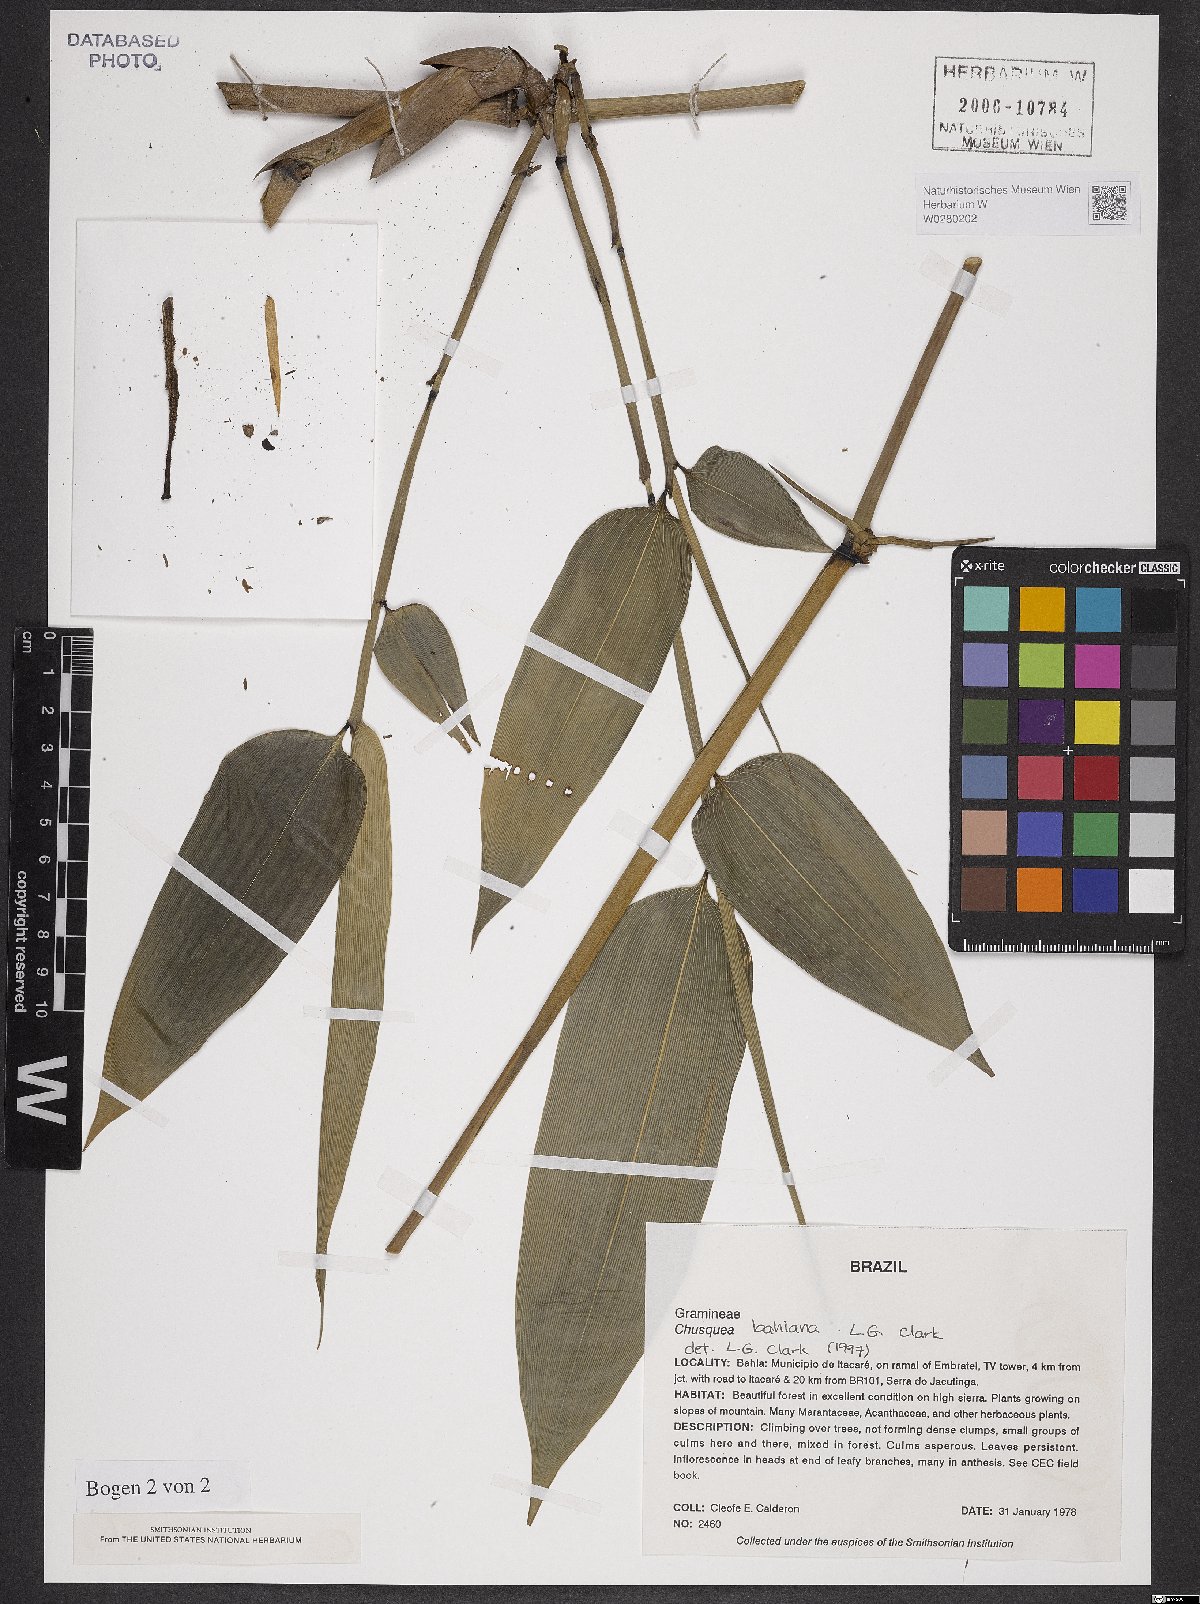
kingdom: Plantae
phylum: Tracheophyta
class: Liliopsida
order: Poales
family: Poaceae
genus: Chusquea
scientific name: Chusquea bahiana
